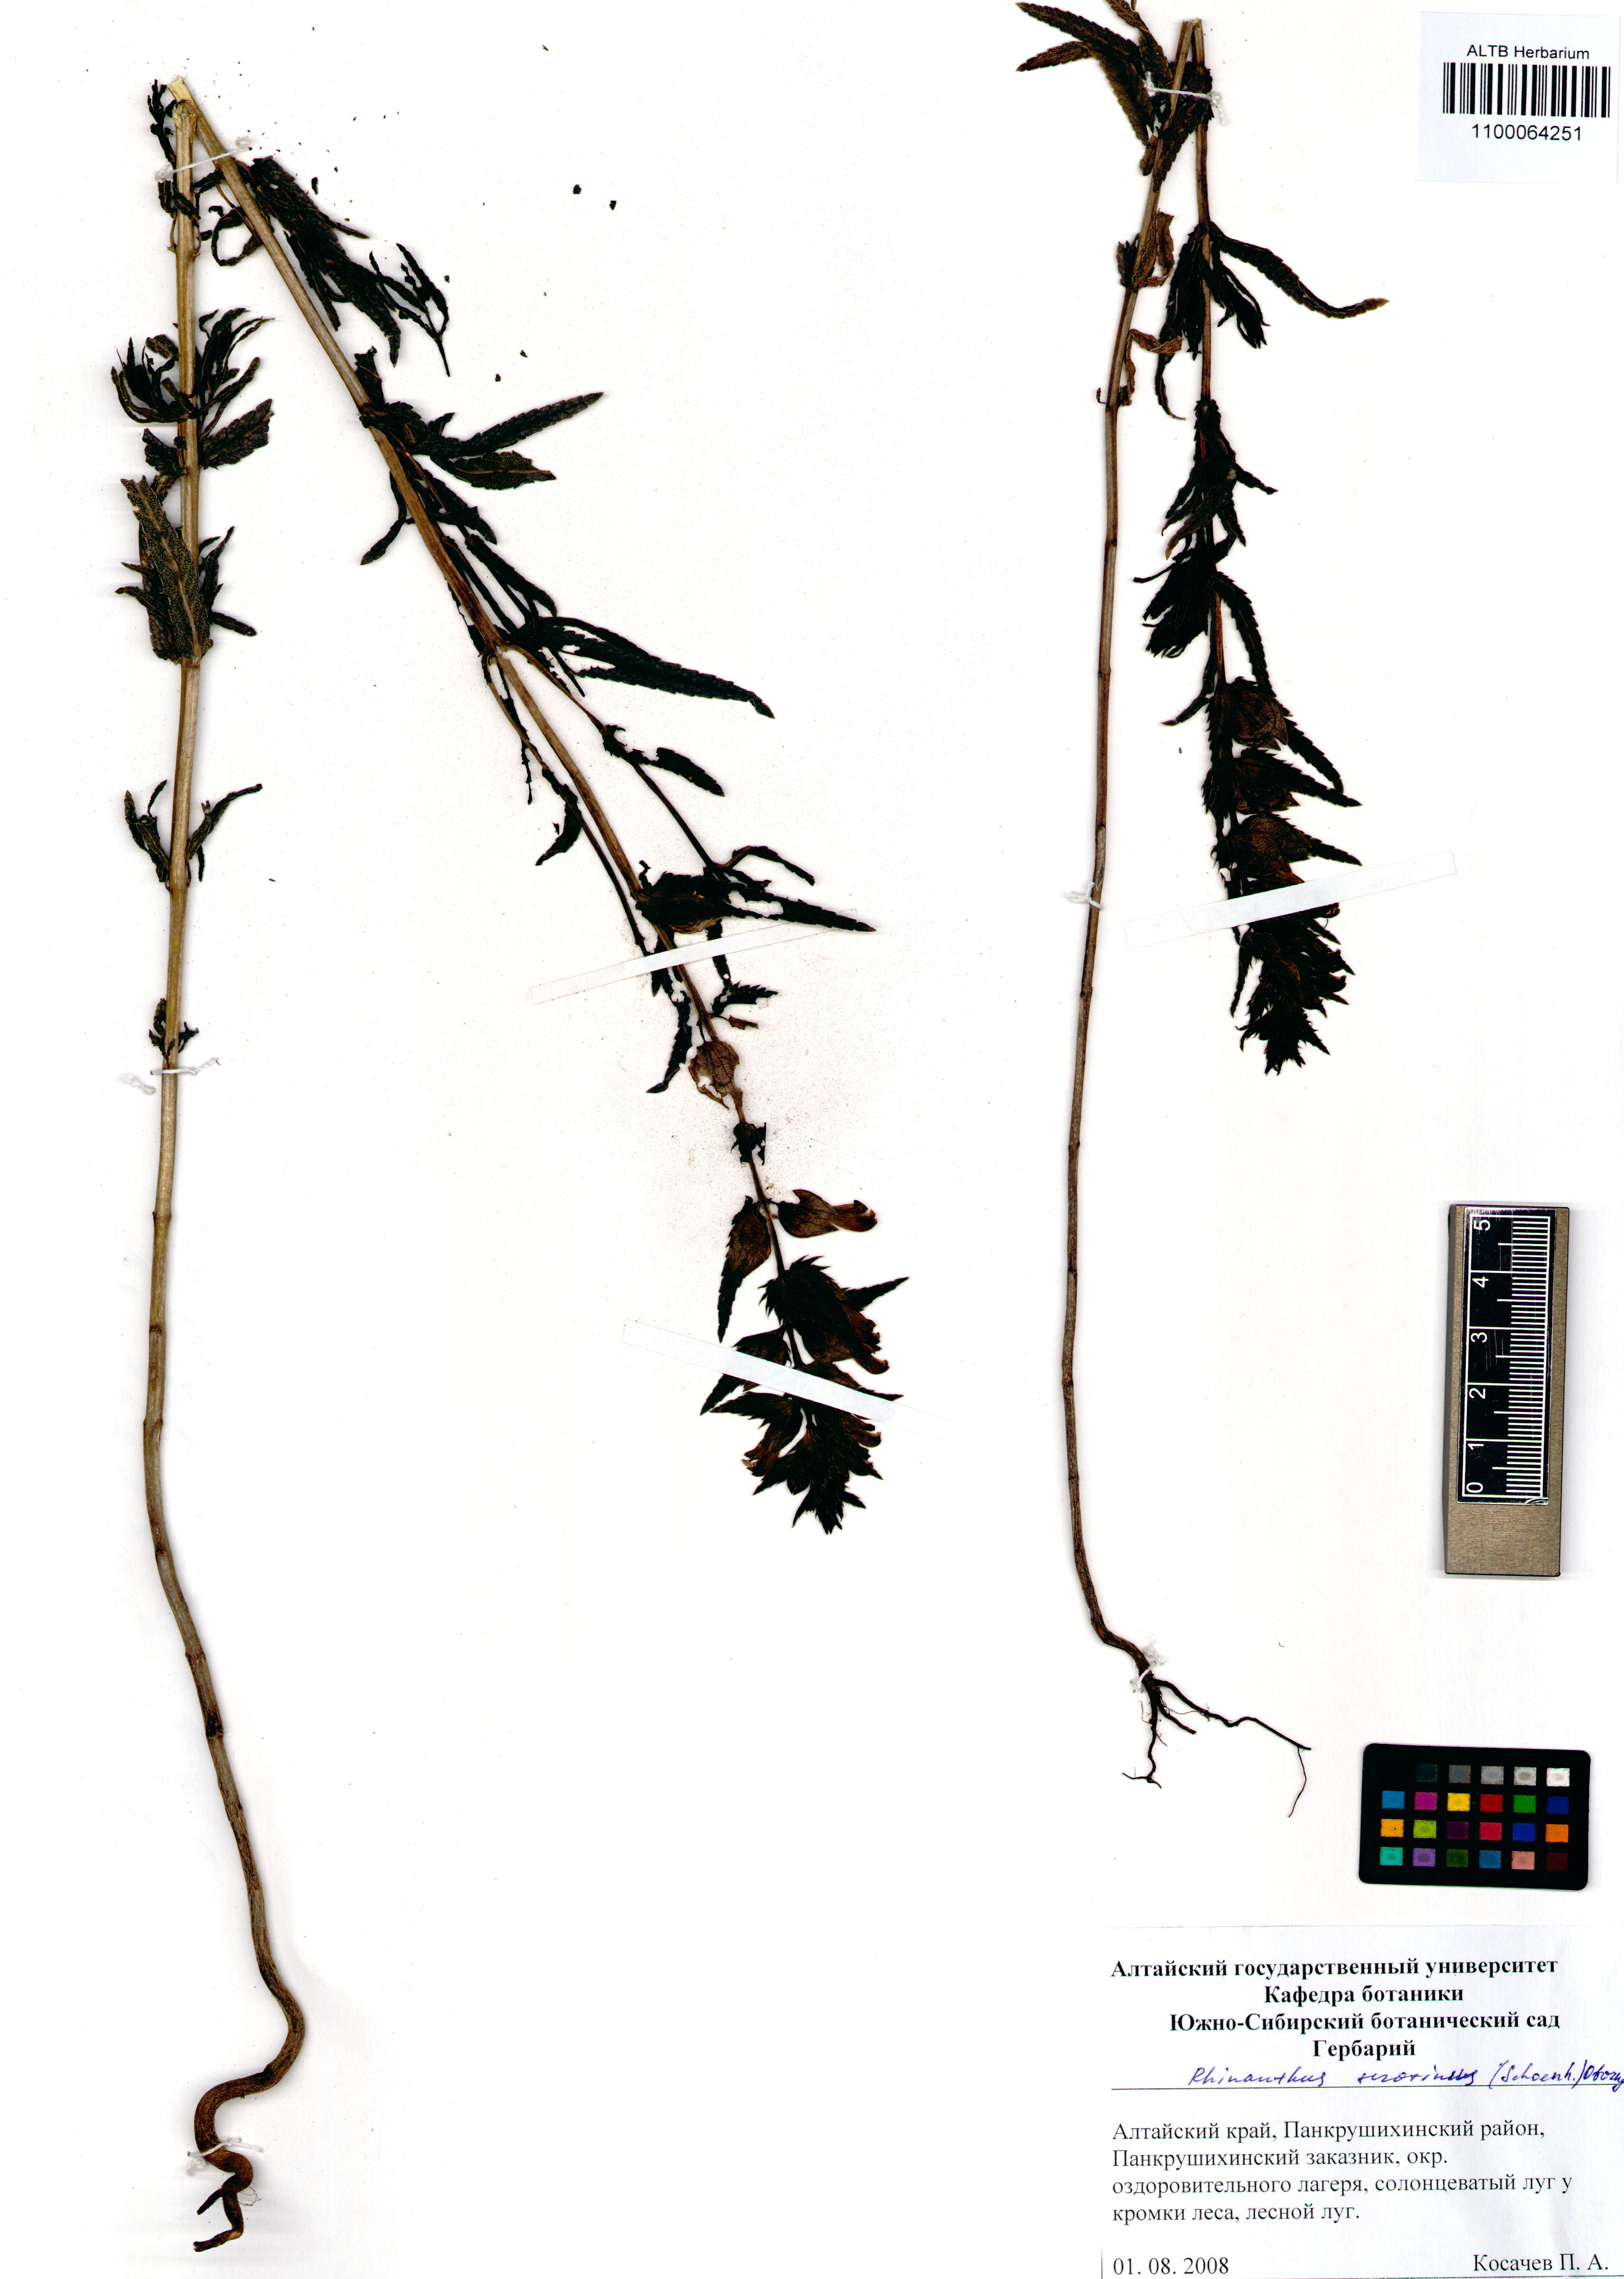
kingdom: Plantae
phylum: Tracheophyta
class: Magnoliopsida
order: Lamiales
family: Orobanchaceae
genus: Rhinanthus
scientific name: Rhinanthus serotinus
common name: Late-flowering yellow rattle
